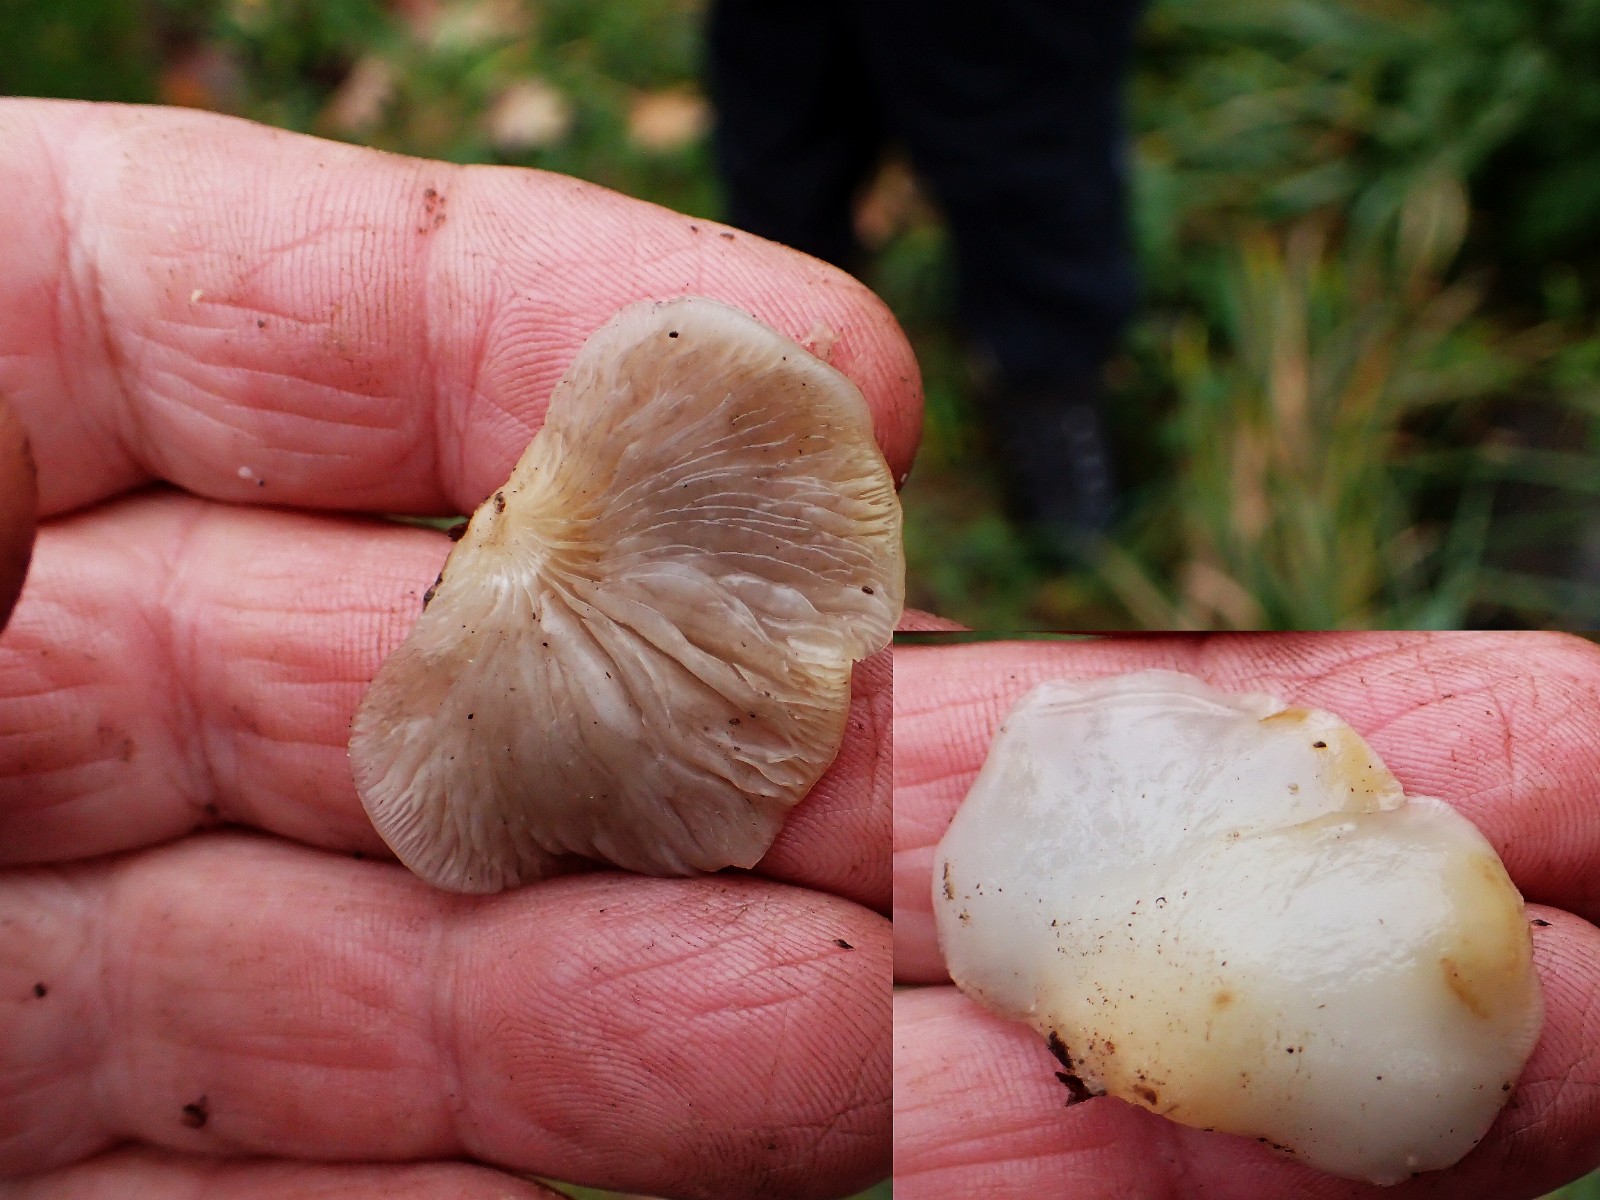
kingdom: Fungi
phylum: Basidiomycota
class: Agaricomycetes
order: Agaricales
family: Crepidotaceae
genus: Crepidotus
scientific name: Crepidotus mollis
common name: blød muslingesvamp
